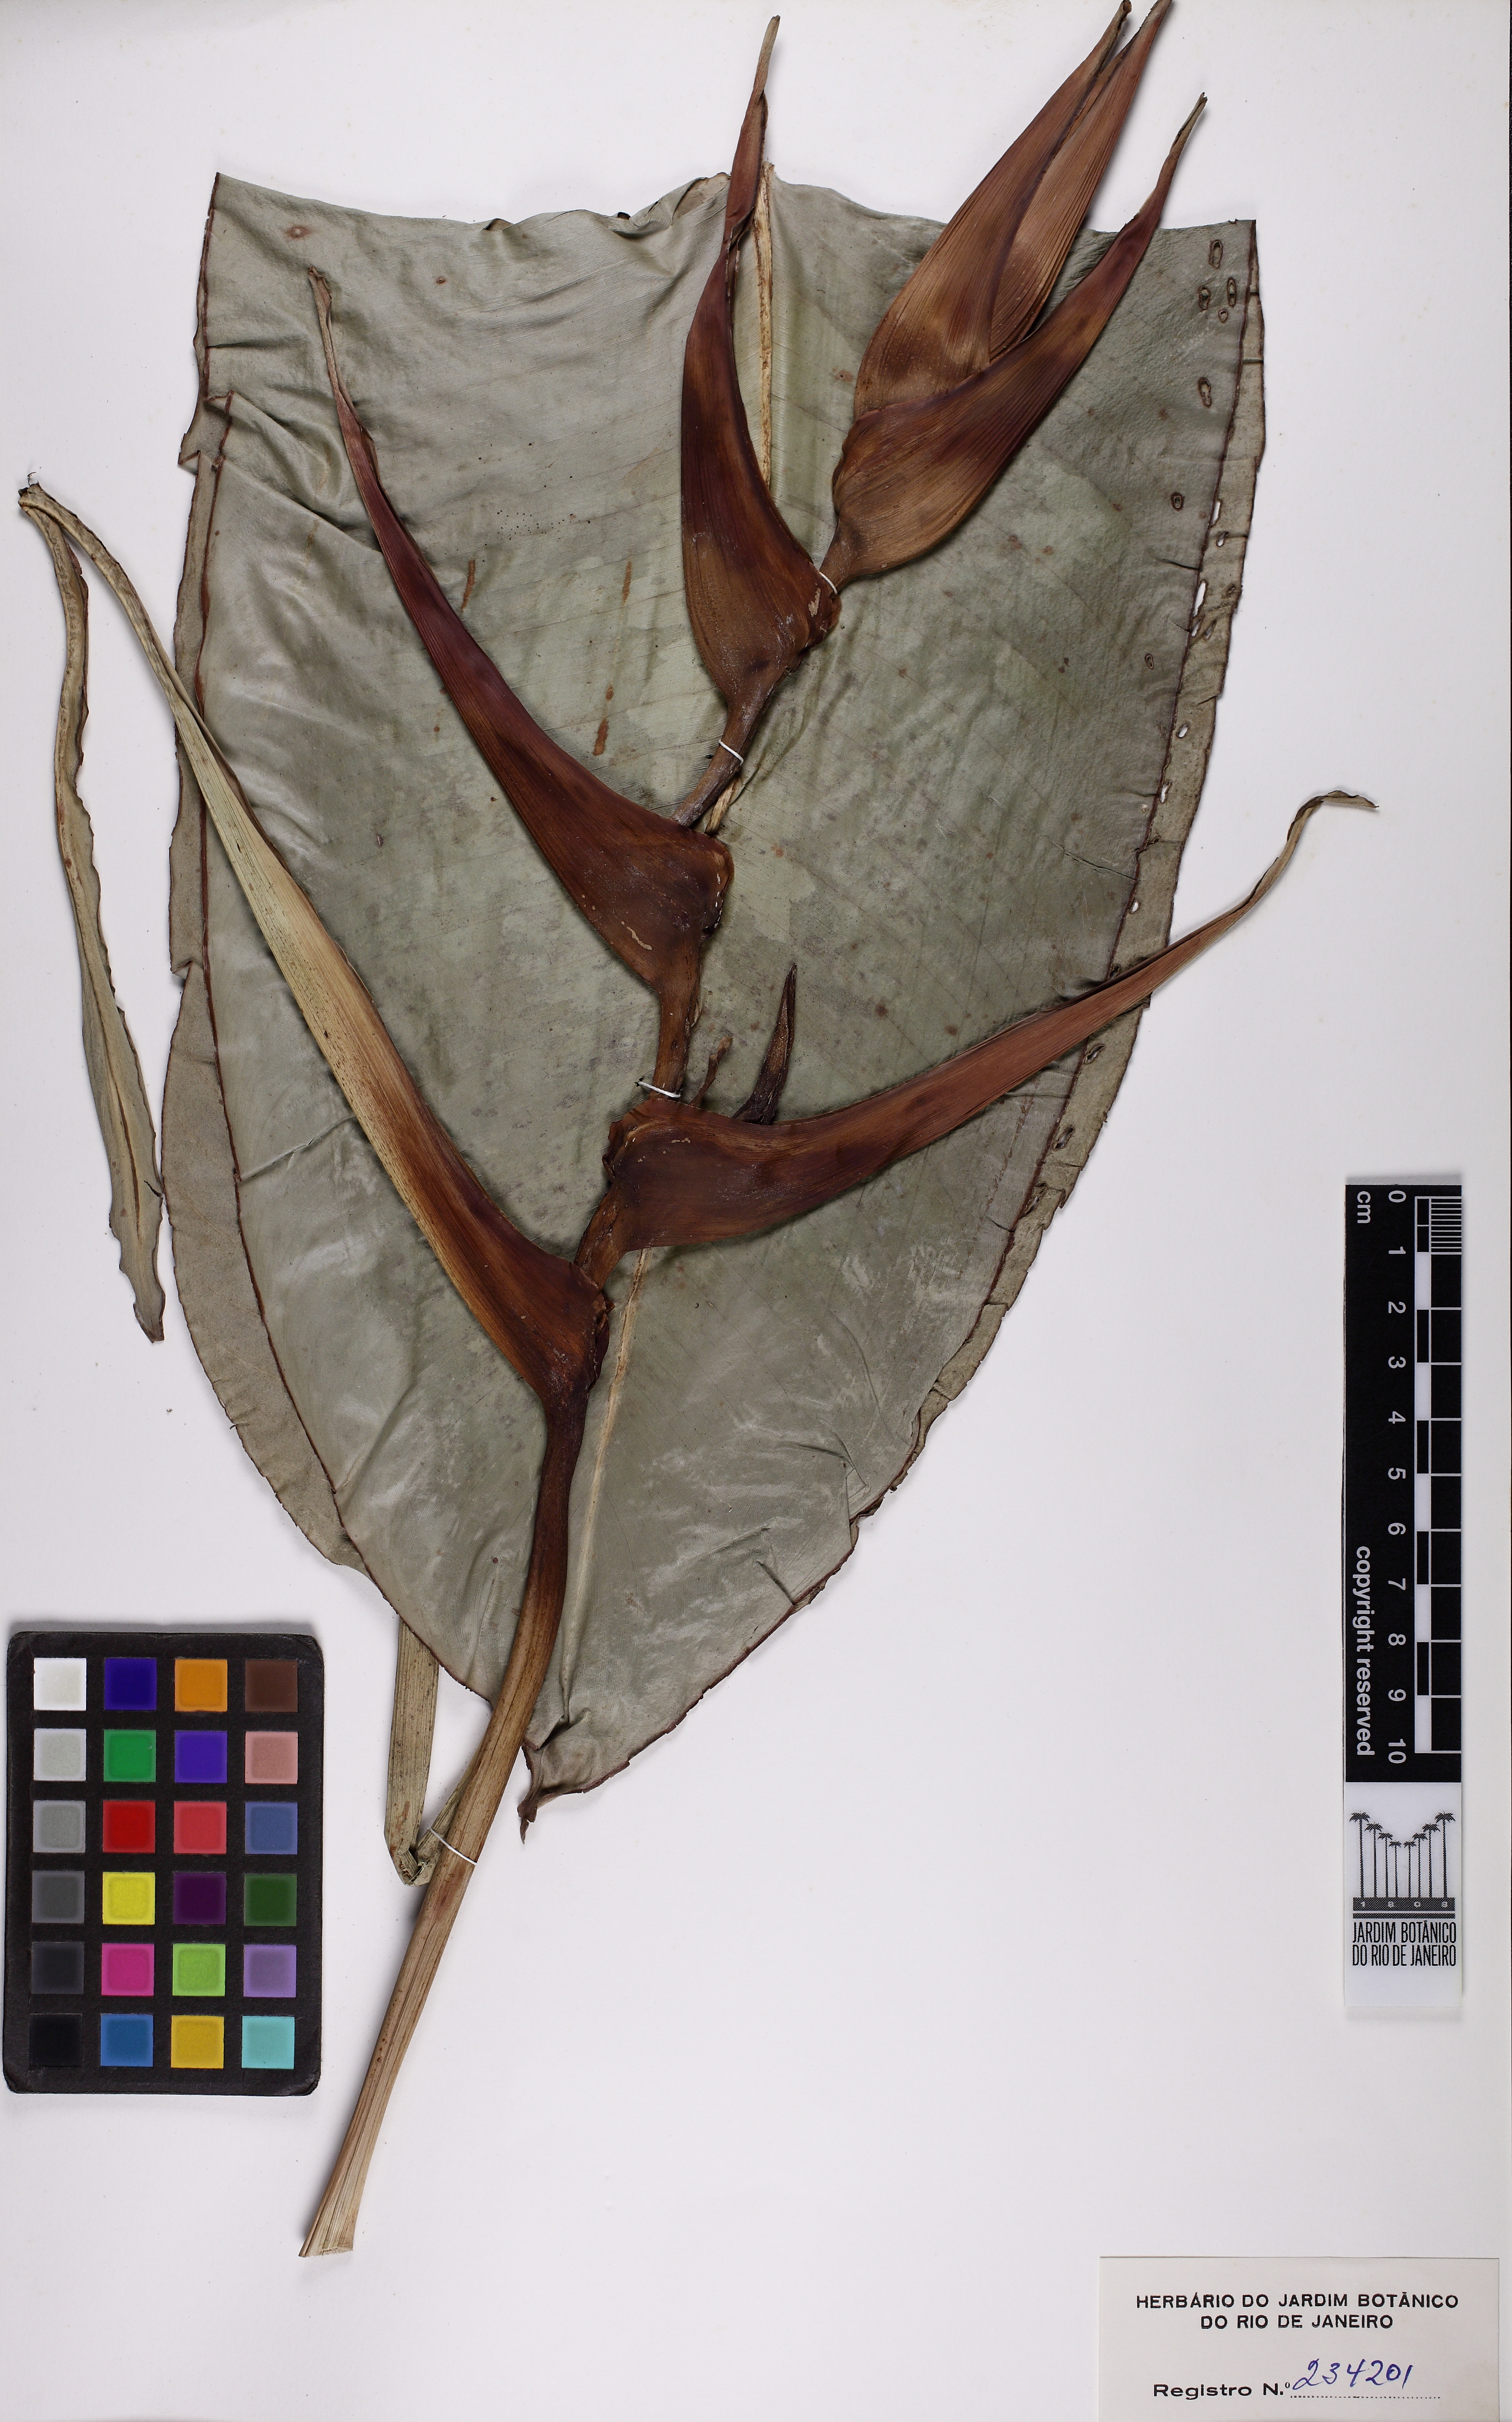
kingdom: Plantae
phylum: Tracheophyta
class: Liliopsida
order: Zingiberales
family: Heliconiaceae
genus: Heliconia
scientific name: Heliconia farinosa
